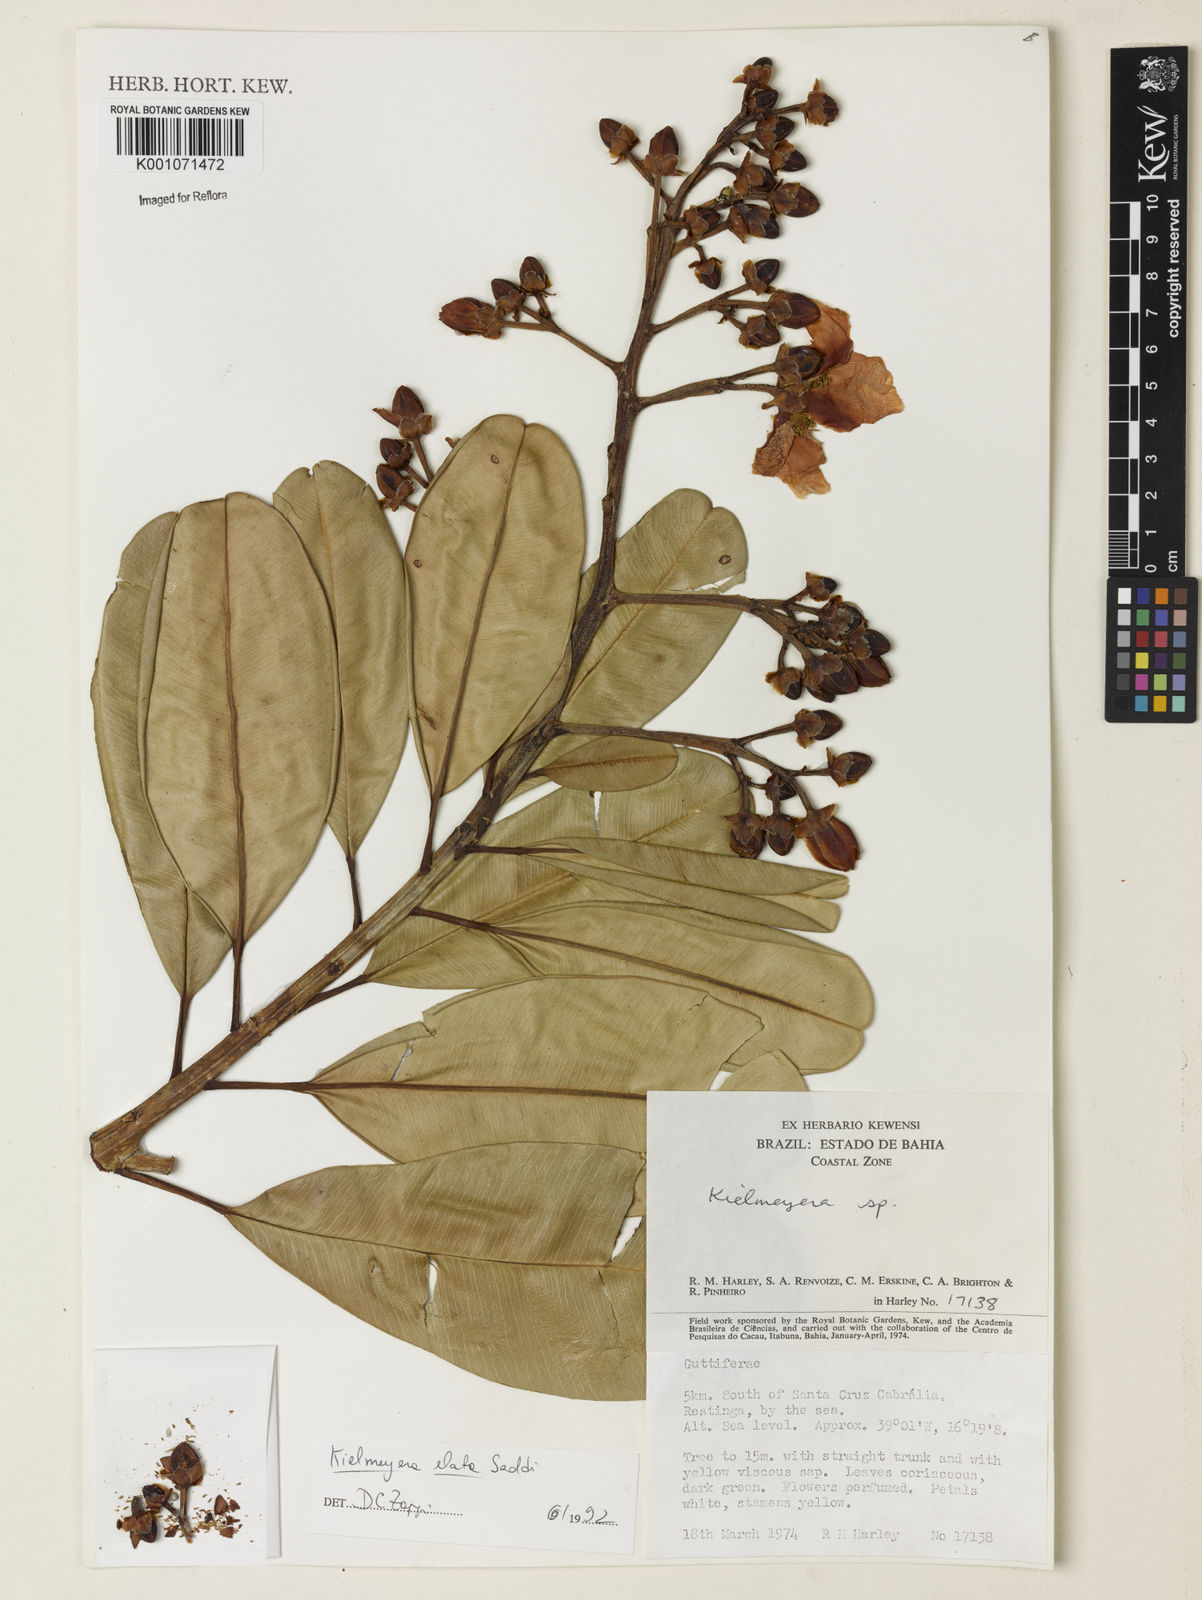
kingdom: Plantae
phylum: Tracheophyta
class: Magnoliopsida
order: Malpighiales
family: Calophyllaceae
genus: Kielmeyera
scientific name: Kielmeyera elata
